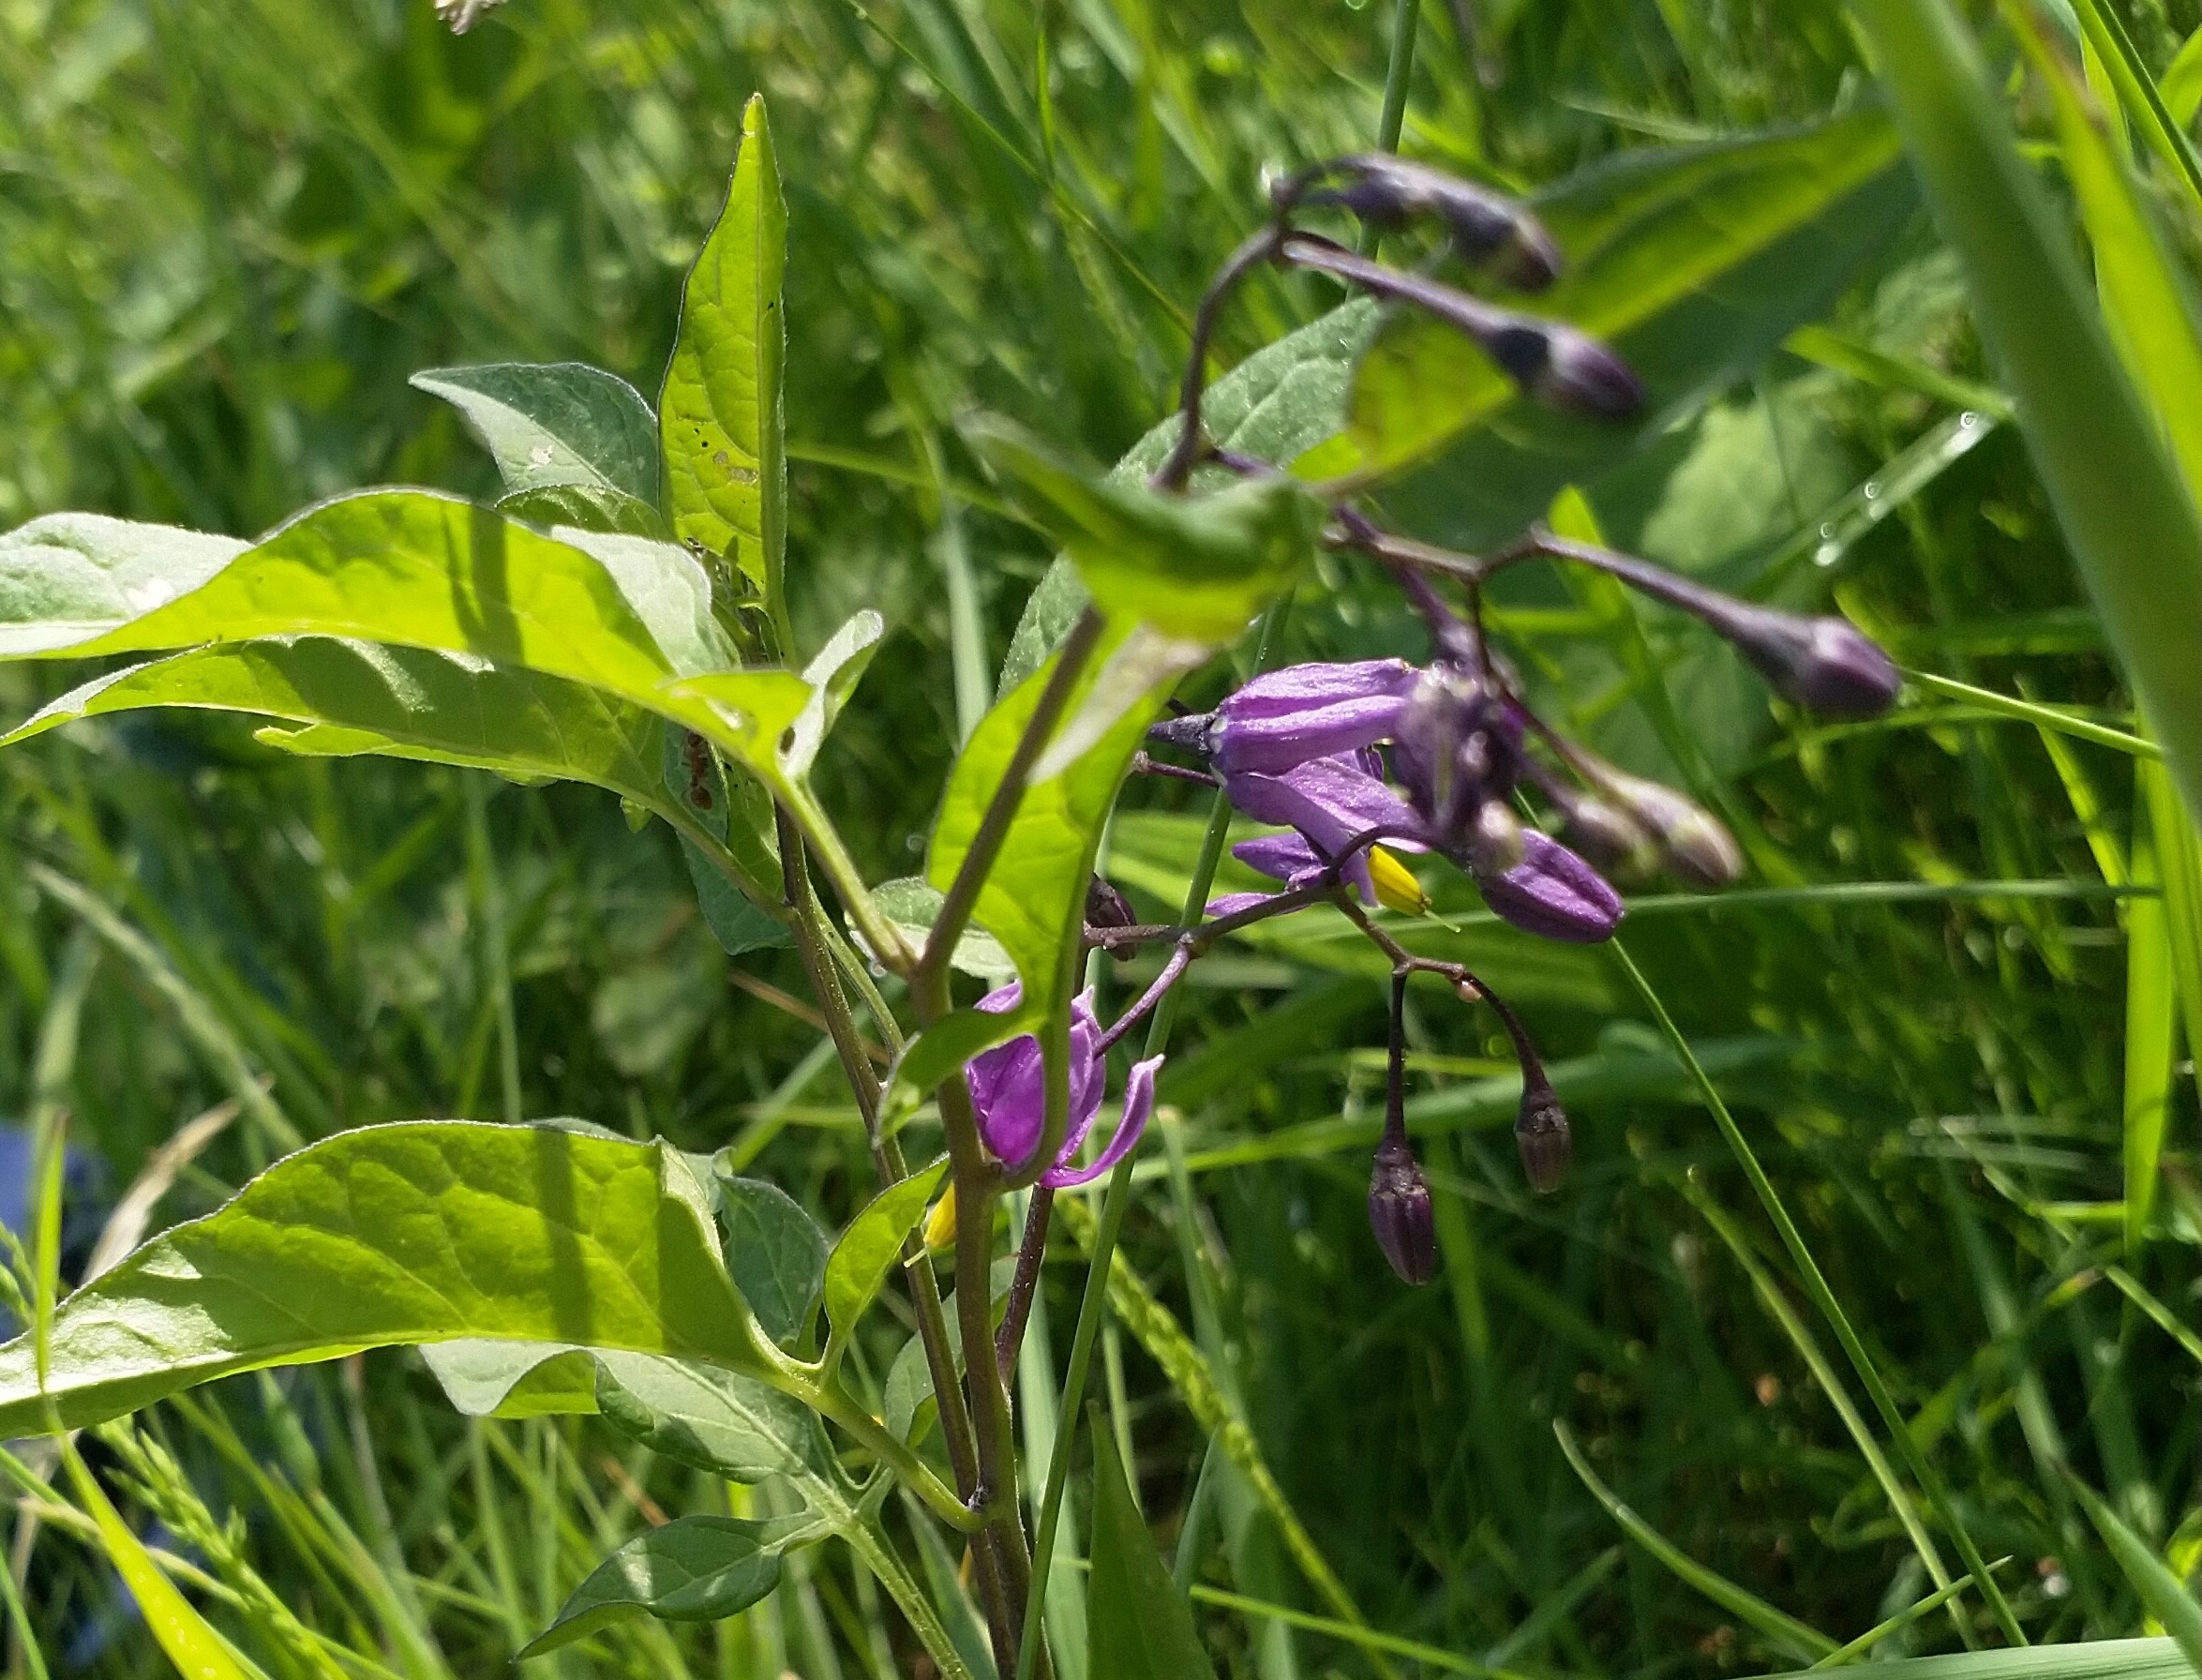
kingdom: Plantae
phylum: Tracheophyta
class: Magnoliopsida
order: Solanales
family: Solanaceae
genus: Solanum
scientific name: Solanum dulcamara
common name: Bittersød natskygge
